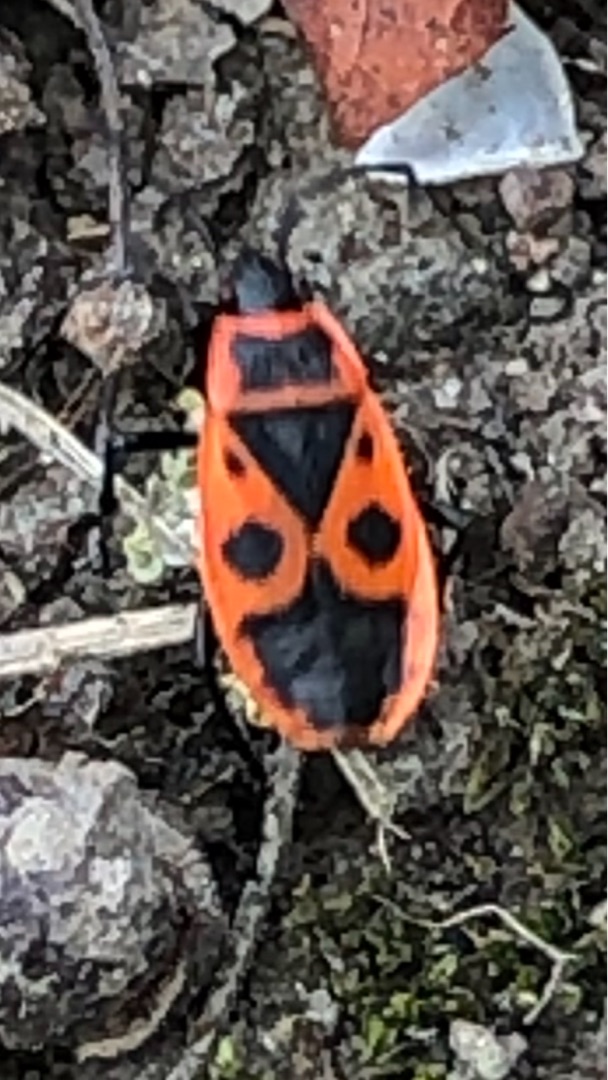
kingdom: Animalia
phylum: Arthropoda
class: Insecta
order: Hemiptera
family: Pyrrhocoridae
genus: Pyrrhocoris
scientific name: Pyrrhocoris apterus
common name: Ildtæge
